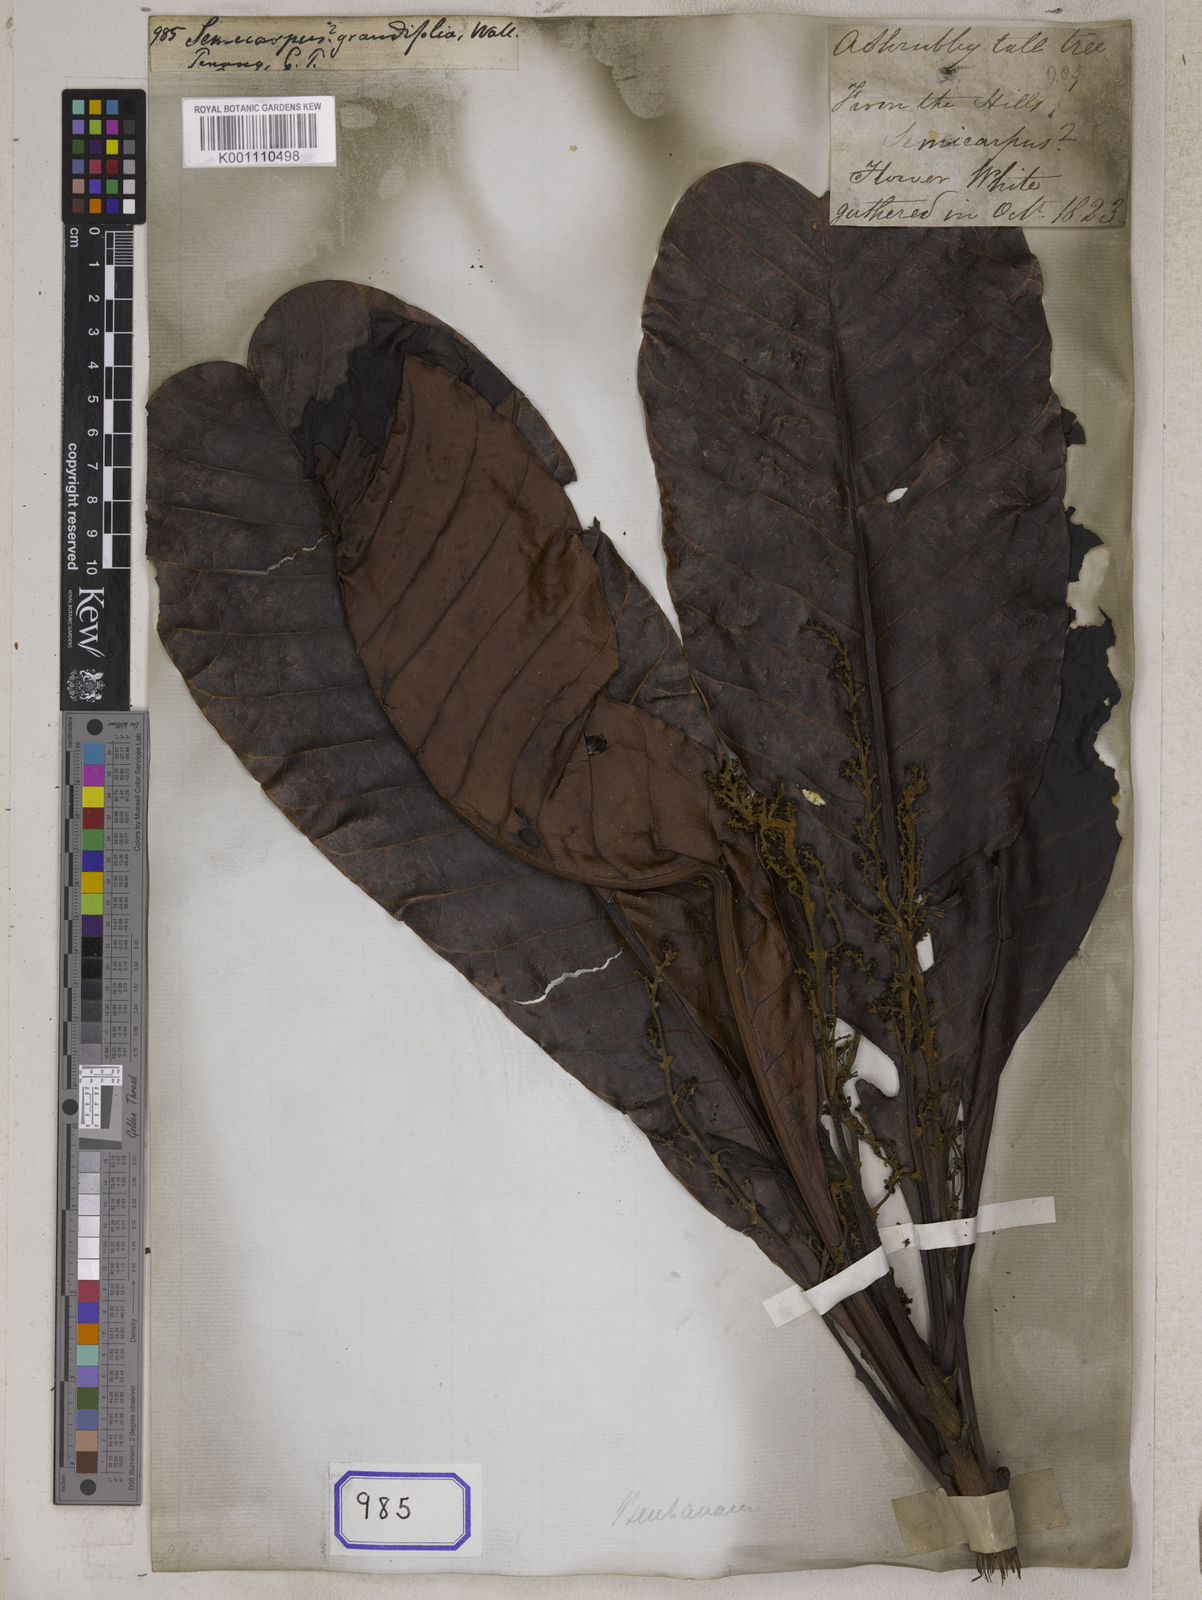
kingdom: Plantae
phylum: Tracheophyta
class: Magnoliopsida
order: Sapindales
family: Anacardiaceae
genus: Semecarpus
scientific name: Semecarpus
